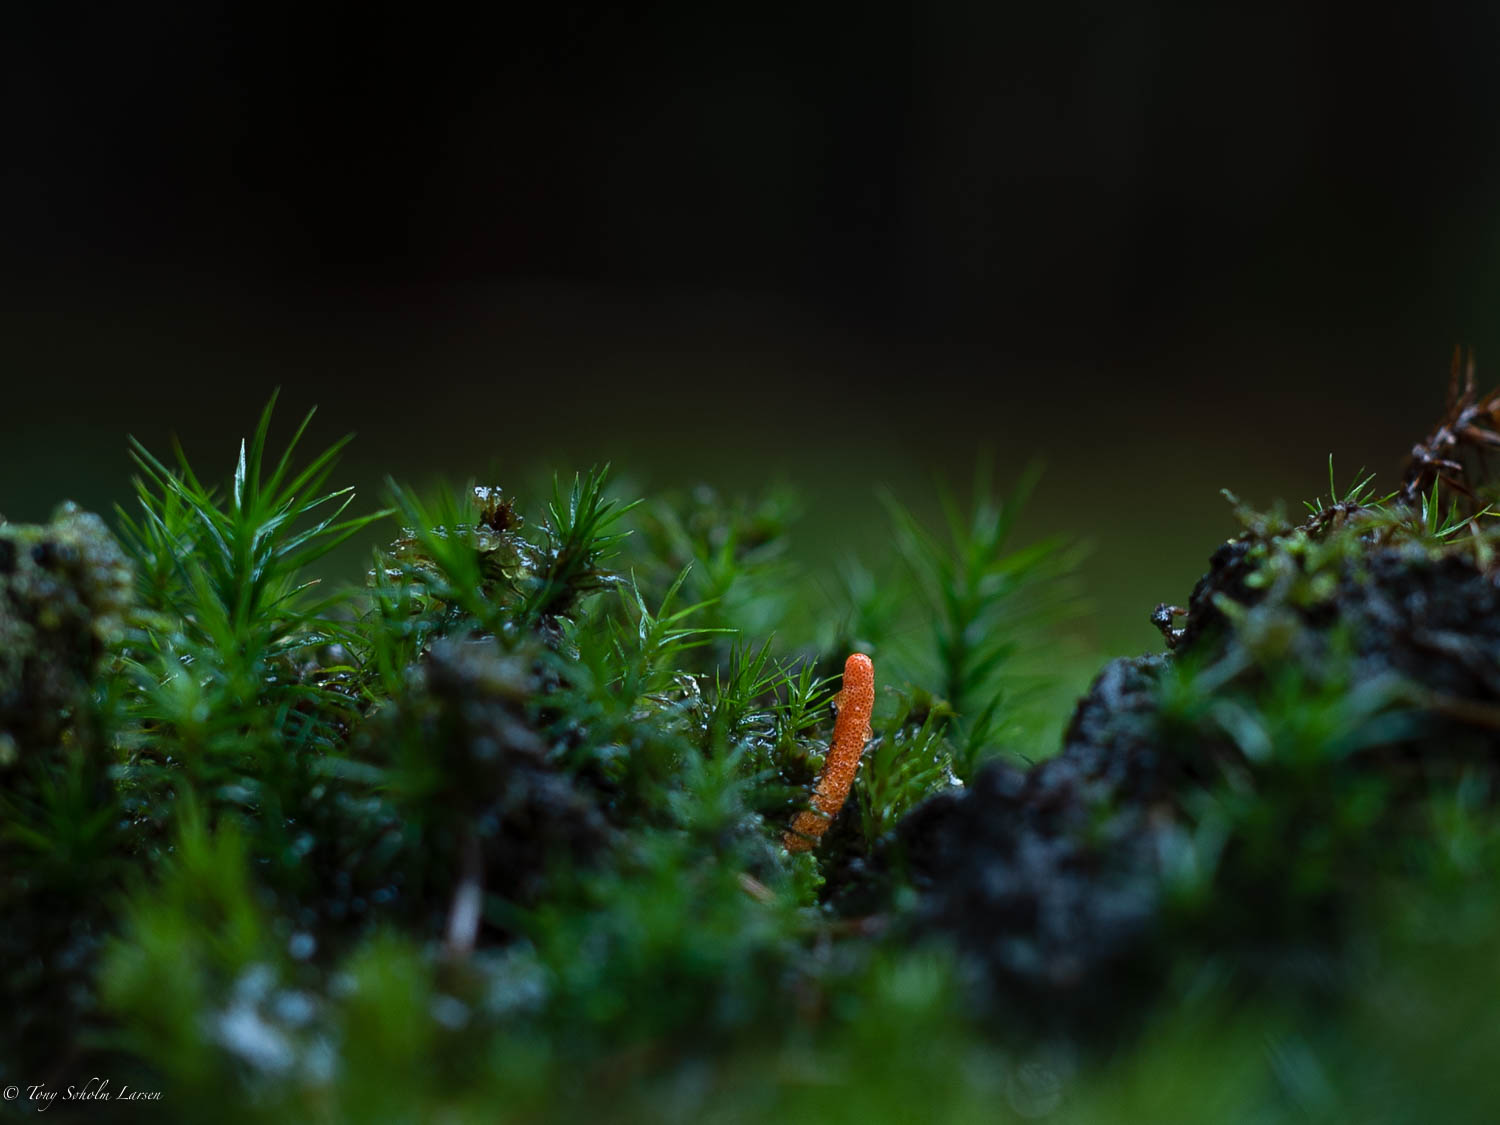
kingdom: Fungi
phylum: Ascomycota
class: Sordariomycetes
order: Hypocreales
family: Cordycipitaceae
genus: Cordyceps
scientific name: Cordyceps militaris
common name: puppe-snyltekølle
